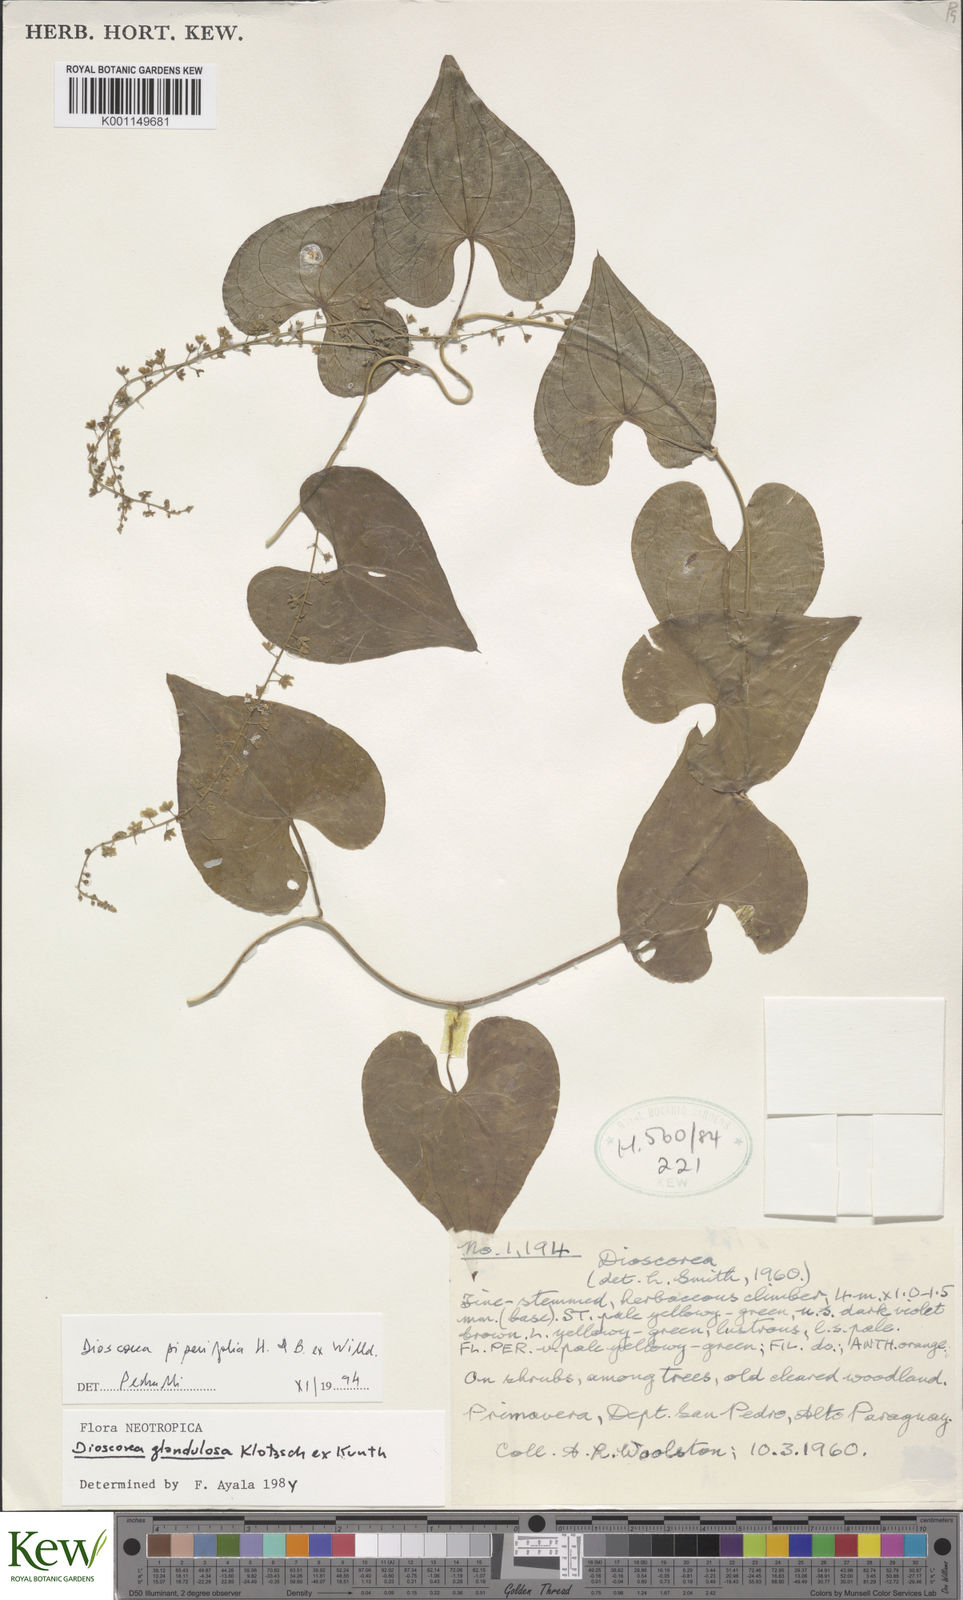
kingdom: Plantae
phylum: Tracheophyta
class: Liliopsida
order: Dioscoreales
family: Dioscoreaceae
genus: Dioscorea
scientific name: Dioscorea glandulosa
